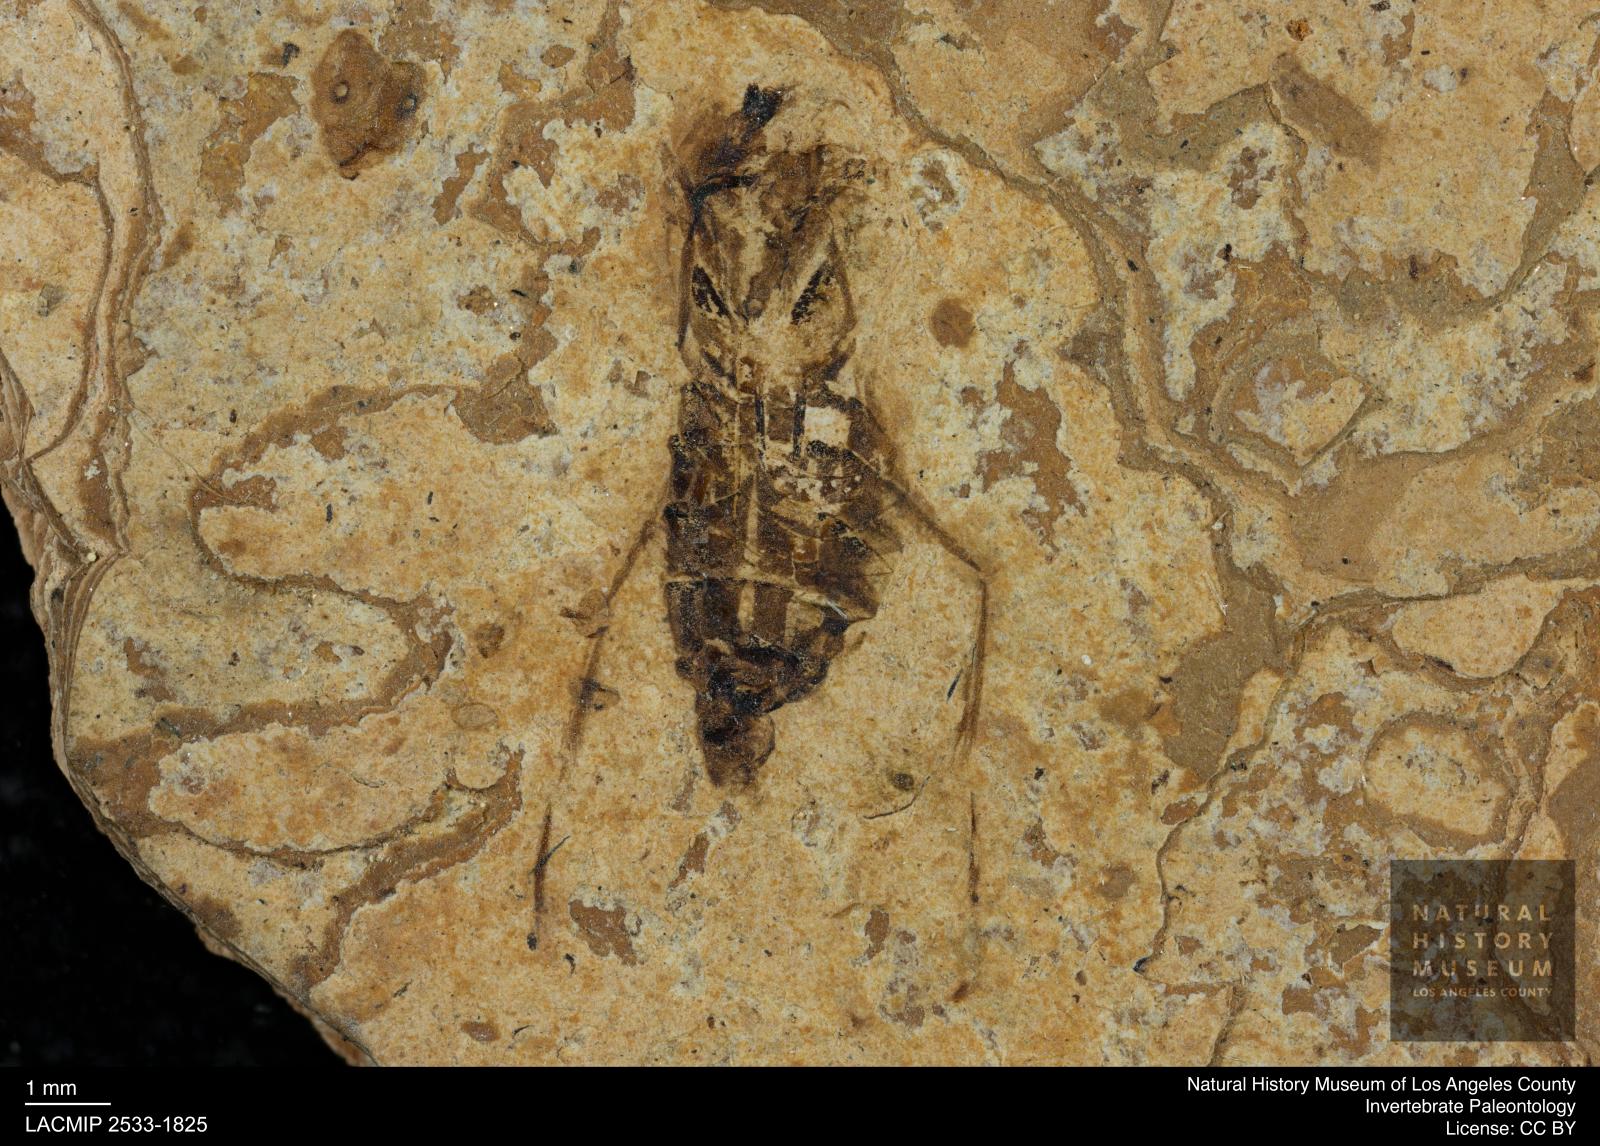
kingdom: Animalia
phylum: Arthropoda
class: Insecta
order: Hemiptera
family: Notonectidae
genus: Notonecta
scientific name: Notonecta
